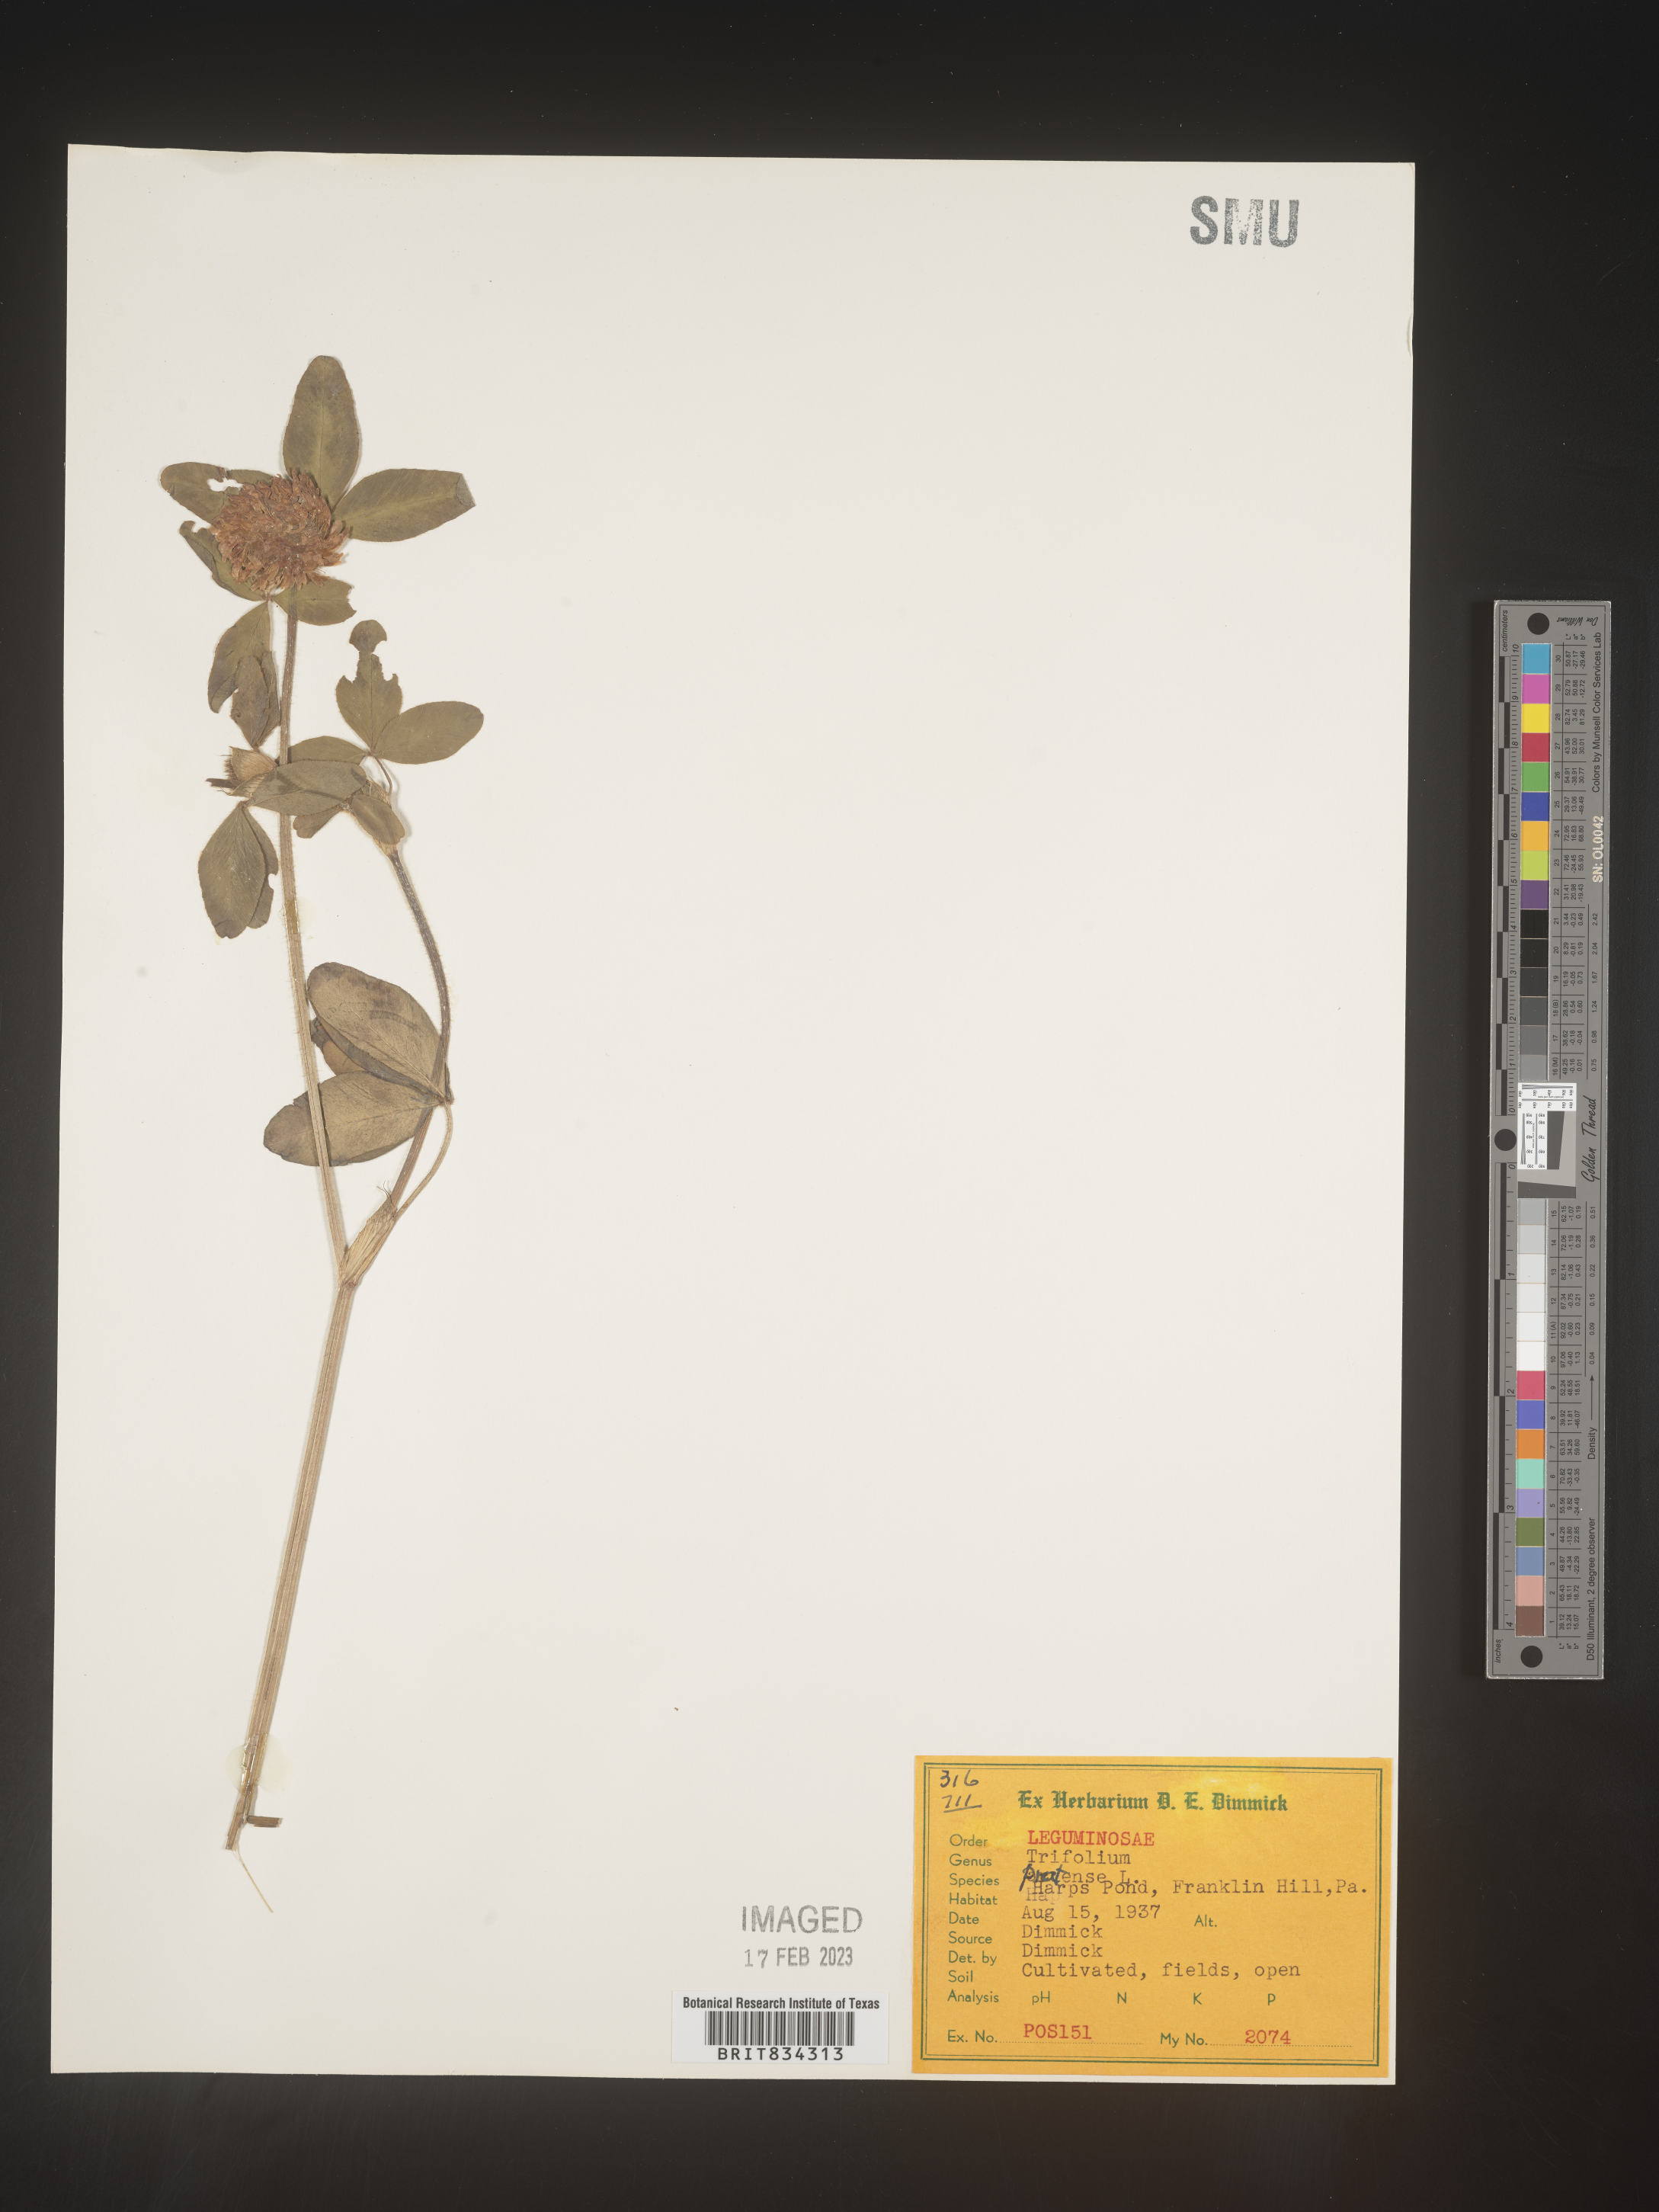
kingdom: Plantae
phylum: Tracheophyta
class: Magnoliopsida
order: Fabales
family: Fabaceae
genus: Trifolium
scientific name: Trifolium pratense
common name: Red clover
